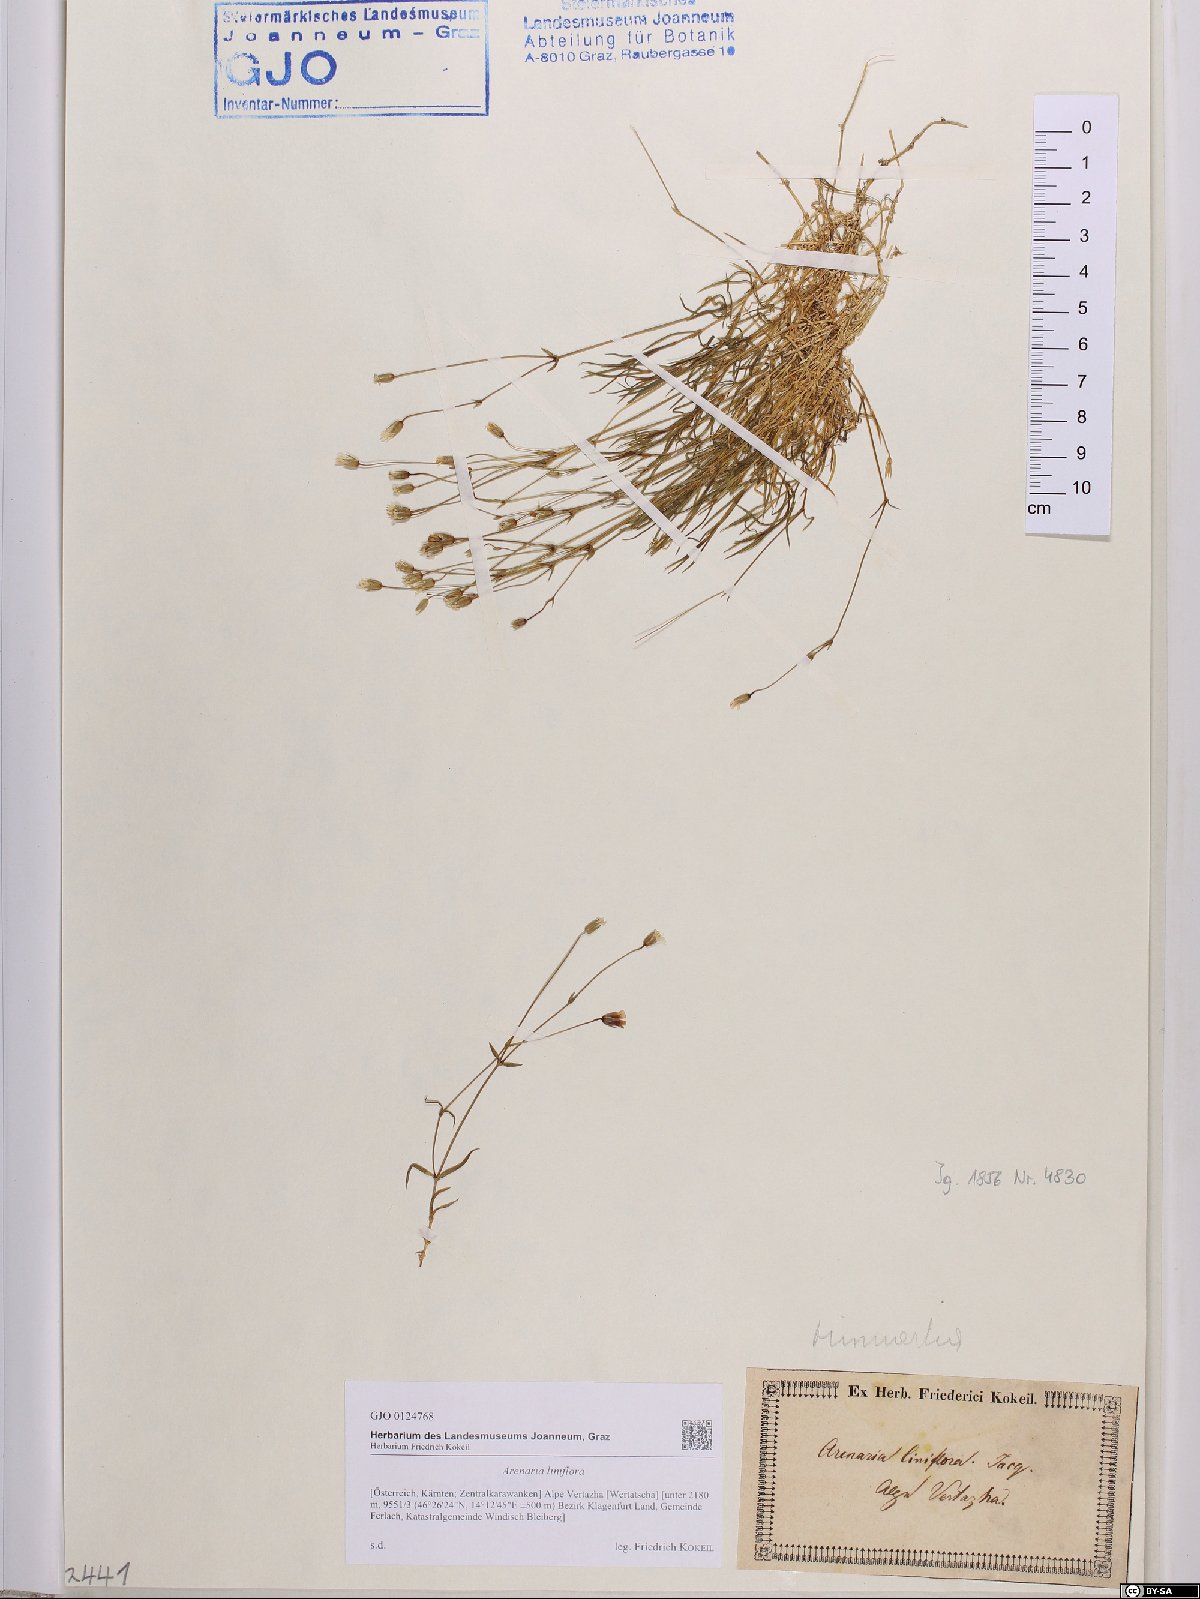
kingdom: Plantae
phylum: Tracheophyta
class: Magnoliopsida
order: Caryophyllales
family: Caryophyllaceae
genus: Cherleria
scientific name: Cherleria laricifolia
